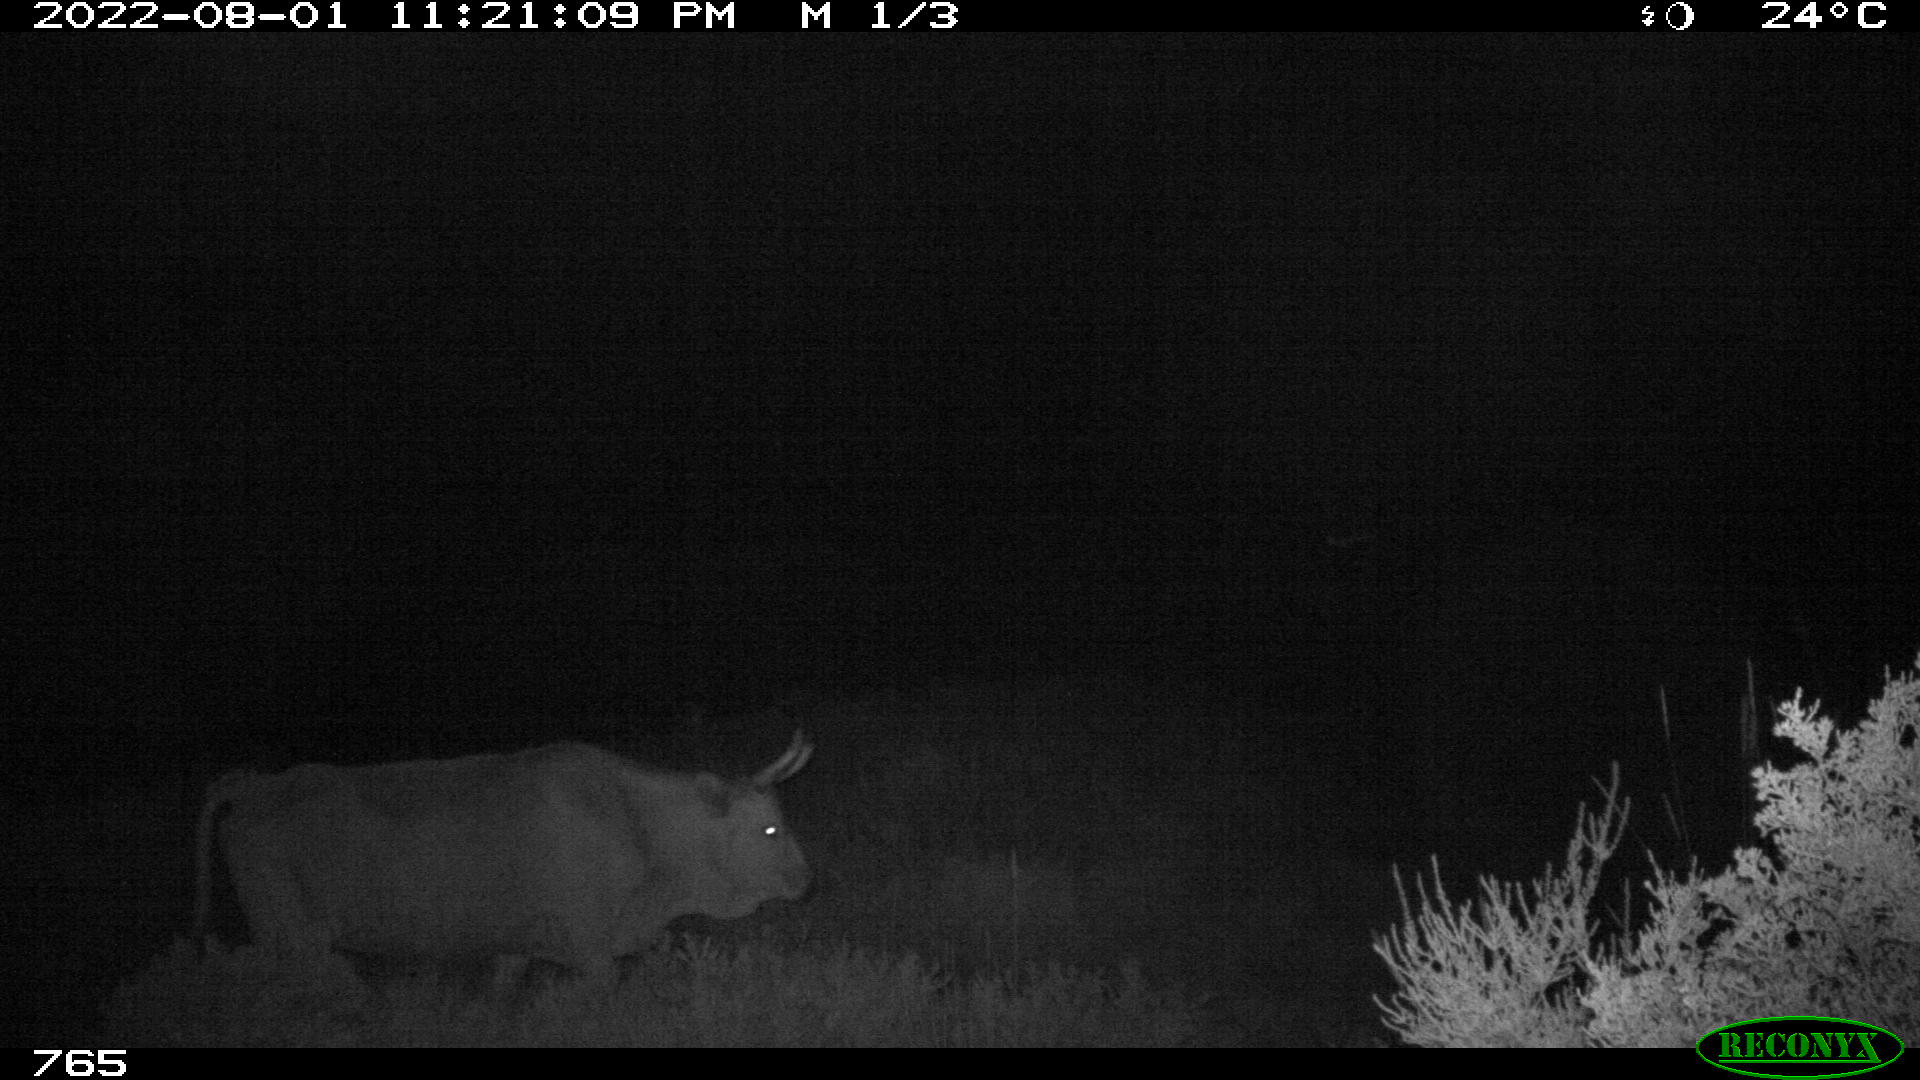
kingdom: Animalia
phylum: Chordata
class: Mammalia
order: Artiodactyla
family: Bovidae
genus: Bos
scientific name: Bos taurus
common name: Domesticated cattle
